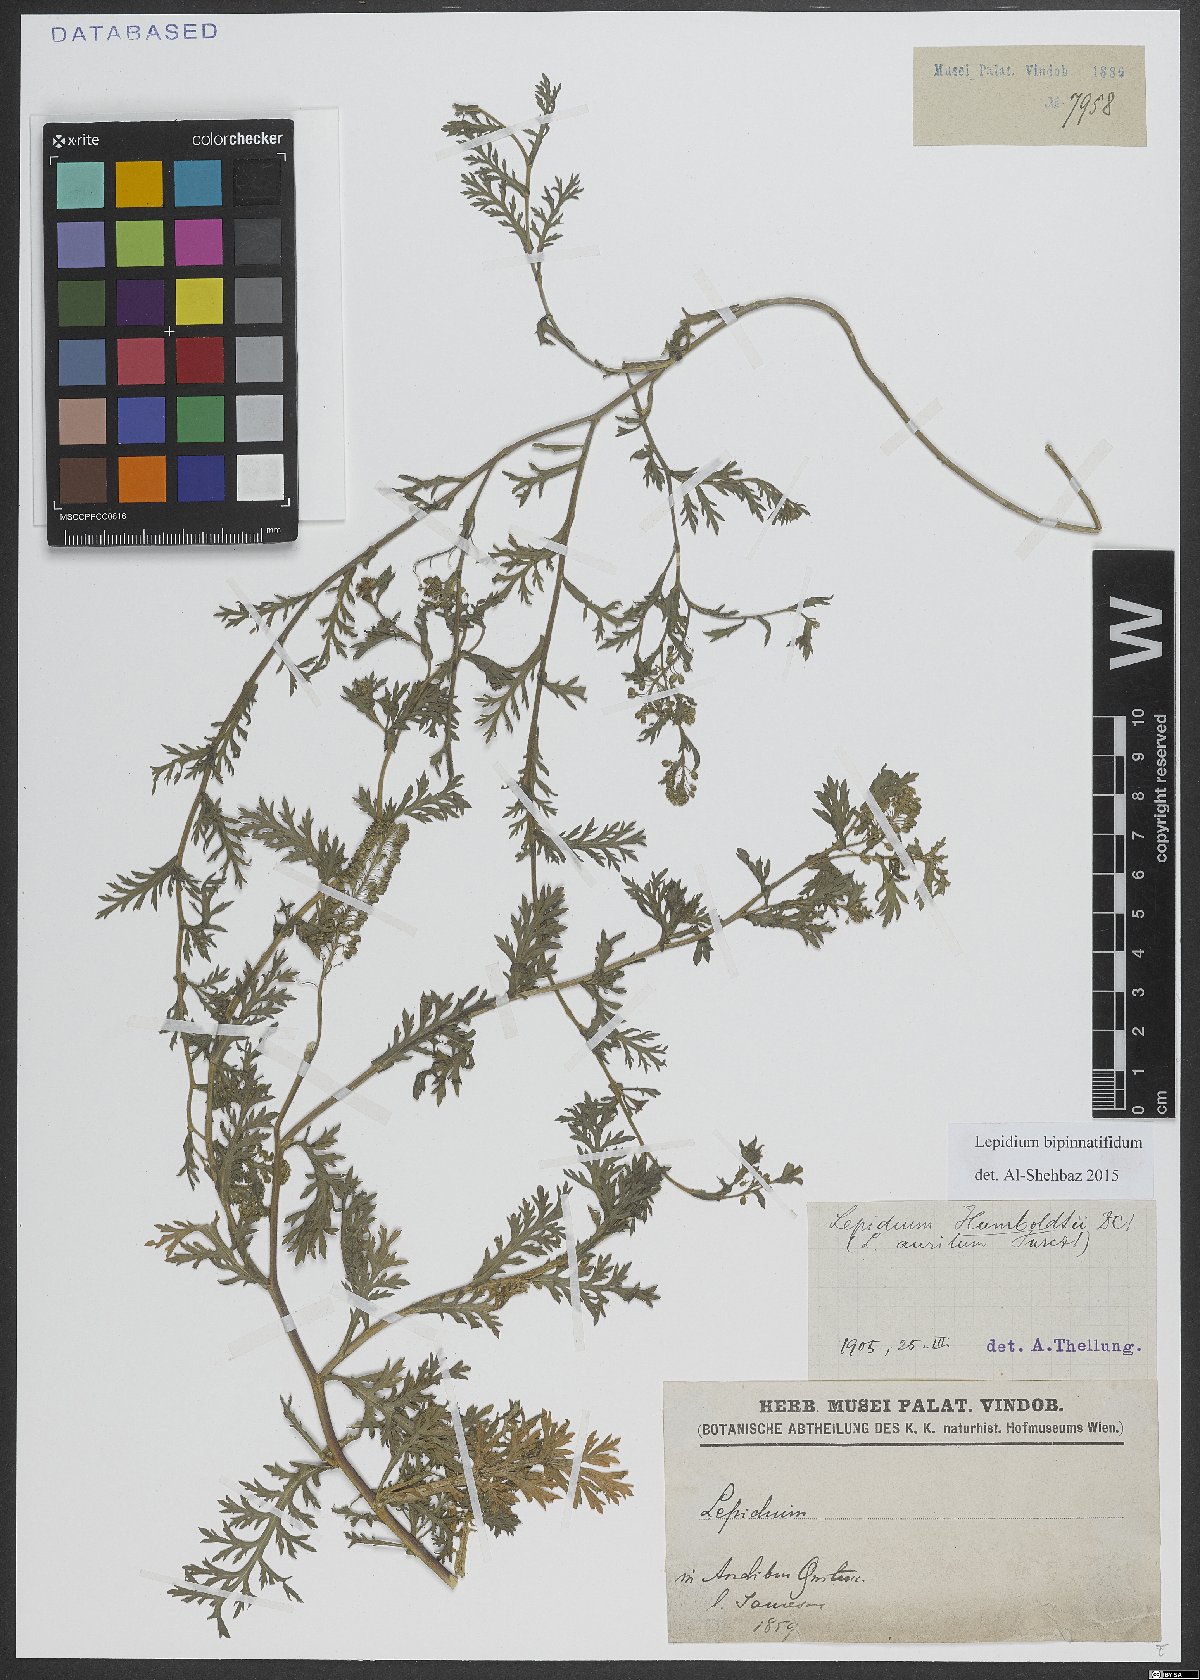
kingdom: Plantae
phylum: Tracheophyta
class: Magnoliopsida
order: Brassicales
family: Brassicaceae
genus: Lepidium
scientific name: Lepidium bipinnatifidum
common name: Wayside pepperwort
